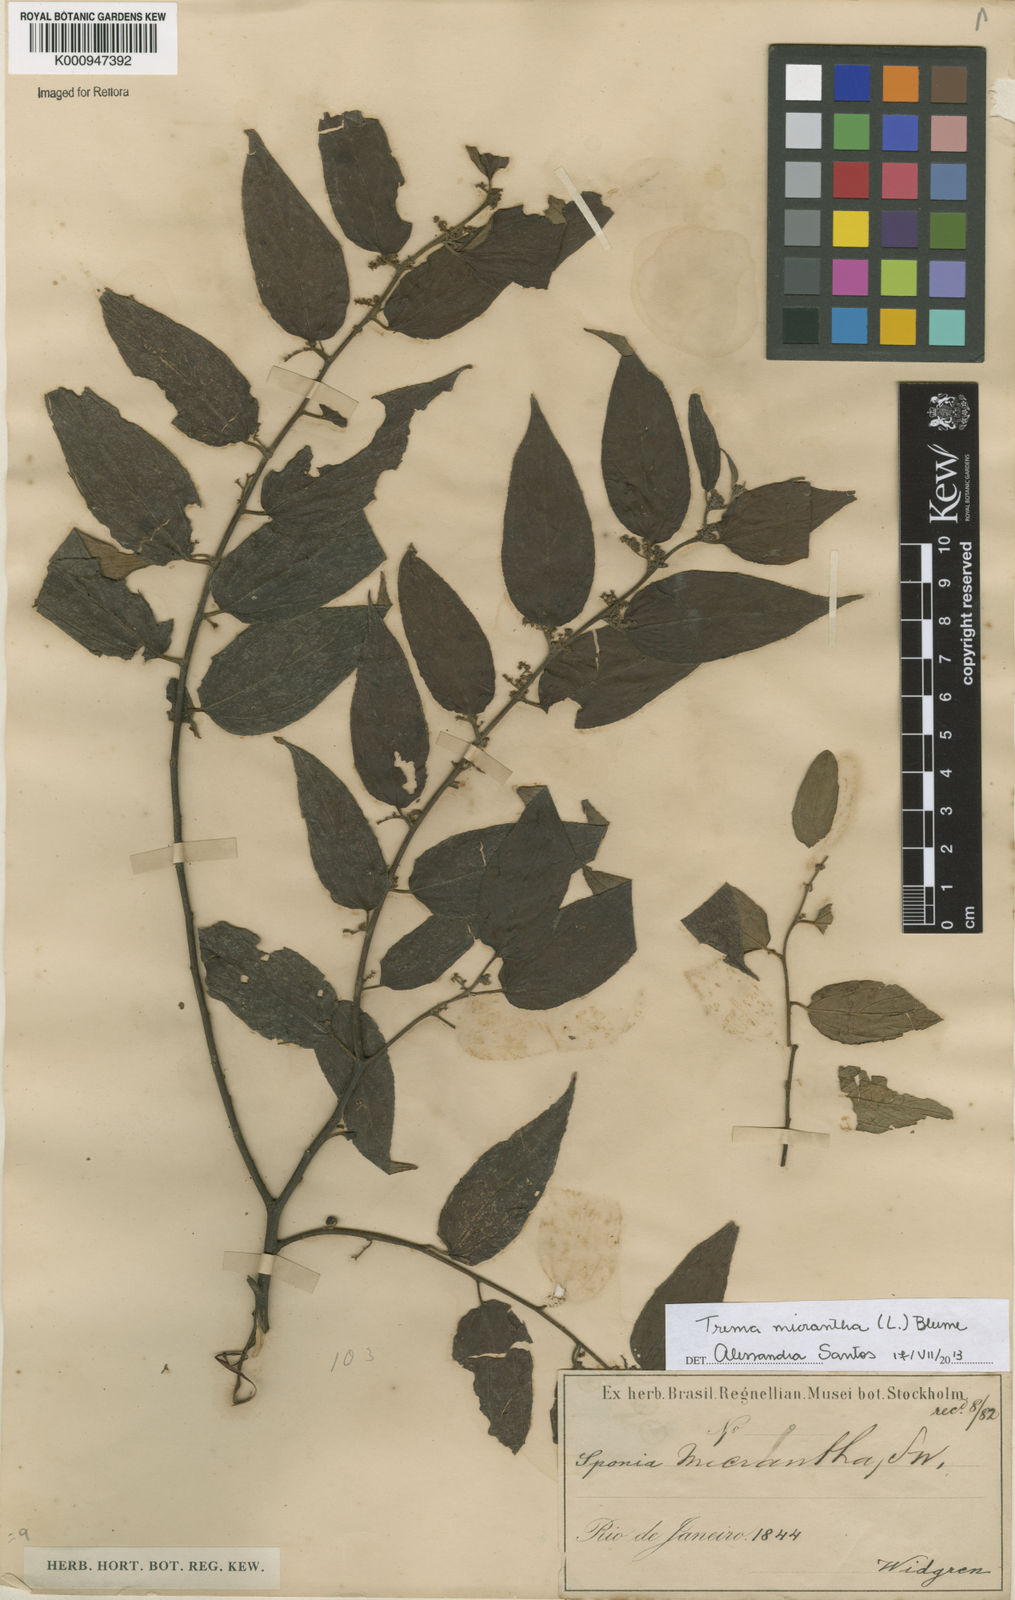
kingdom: Plantae
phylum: Tracheophyta
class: Magnoliopsida
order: Rosales
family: Cannabaceae
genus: Trema
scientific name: Trema micranthum
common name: Jamaican nettletree
